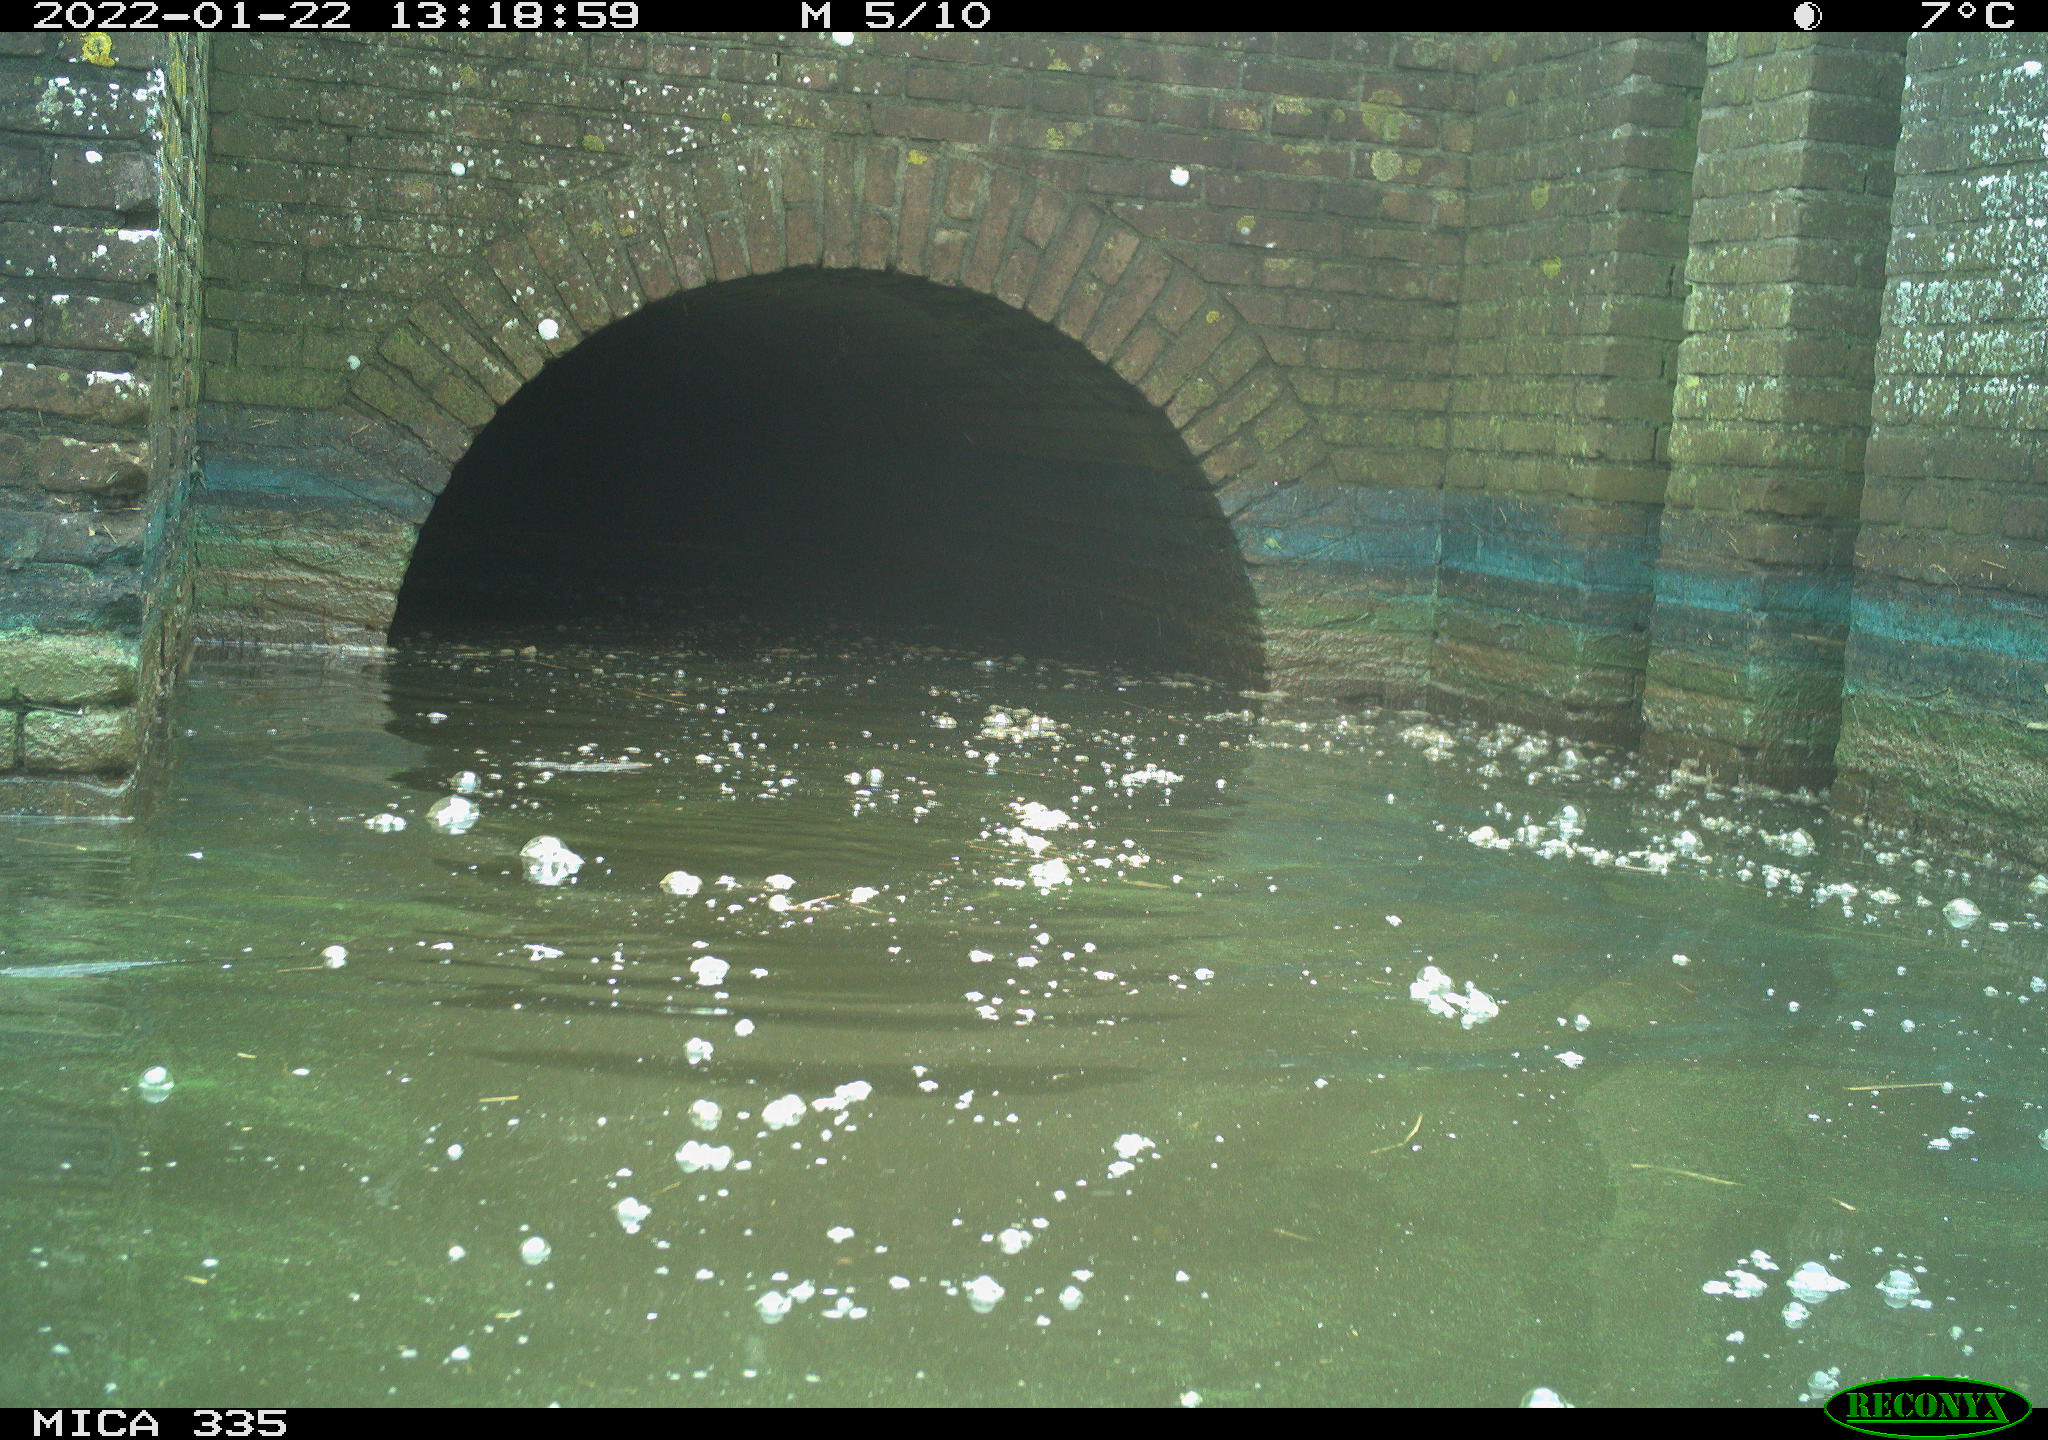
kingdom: Animalia
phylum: Chordata
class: Aves
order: Gruiformes
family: Rallidae
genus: Gallinula
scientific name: Gallinula chloropus
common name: Common moorhen
